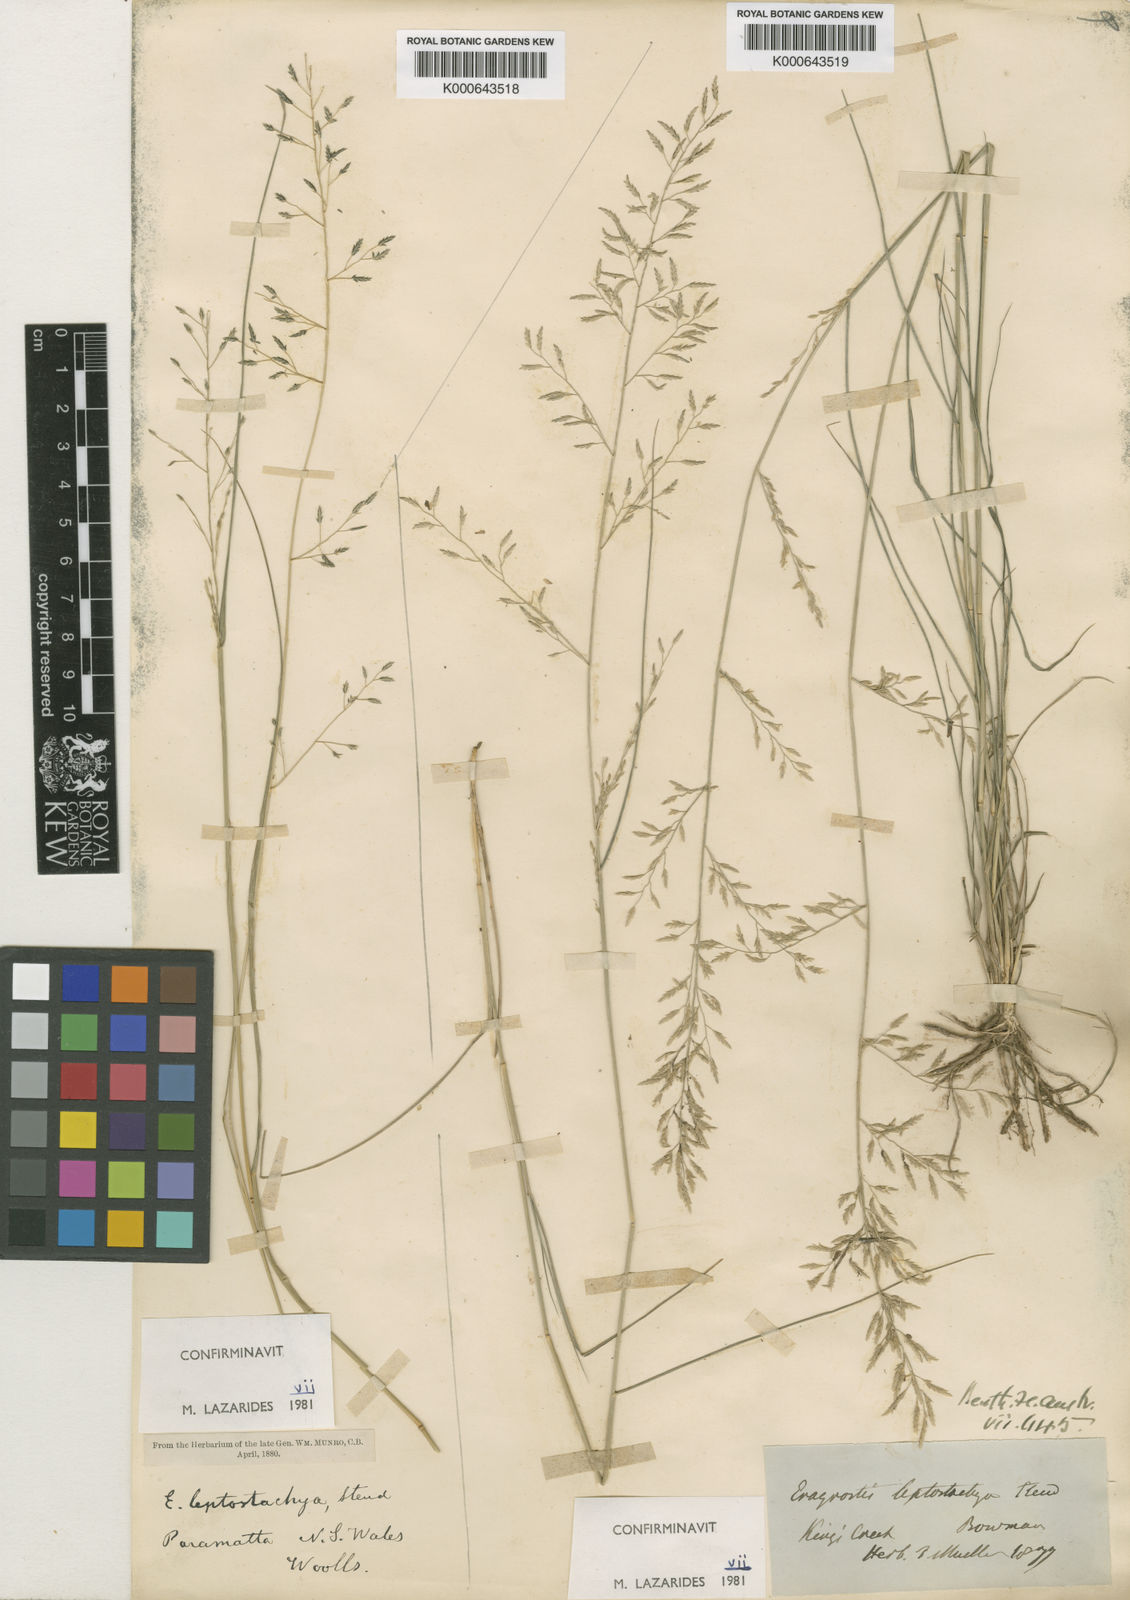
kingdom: Plantae
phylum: Tracheophyta
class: Liliopsida
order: Poales
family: Poaceae
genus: Eragrostis
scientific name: Eragrostis leptostachya
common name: Australian lovegrass
